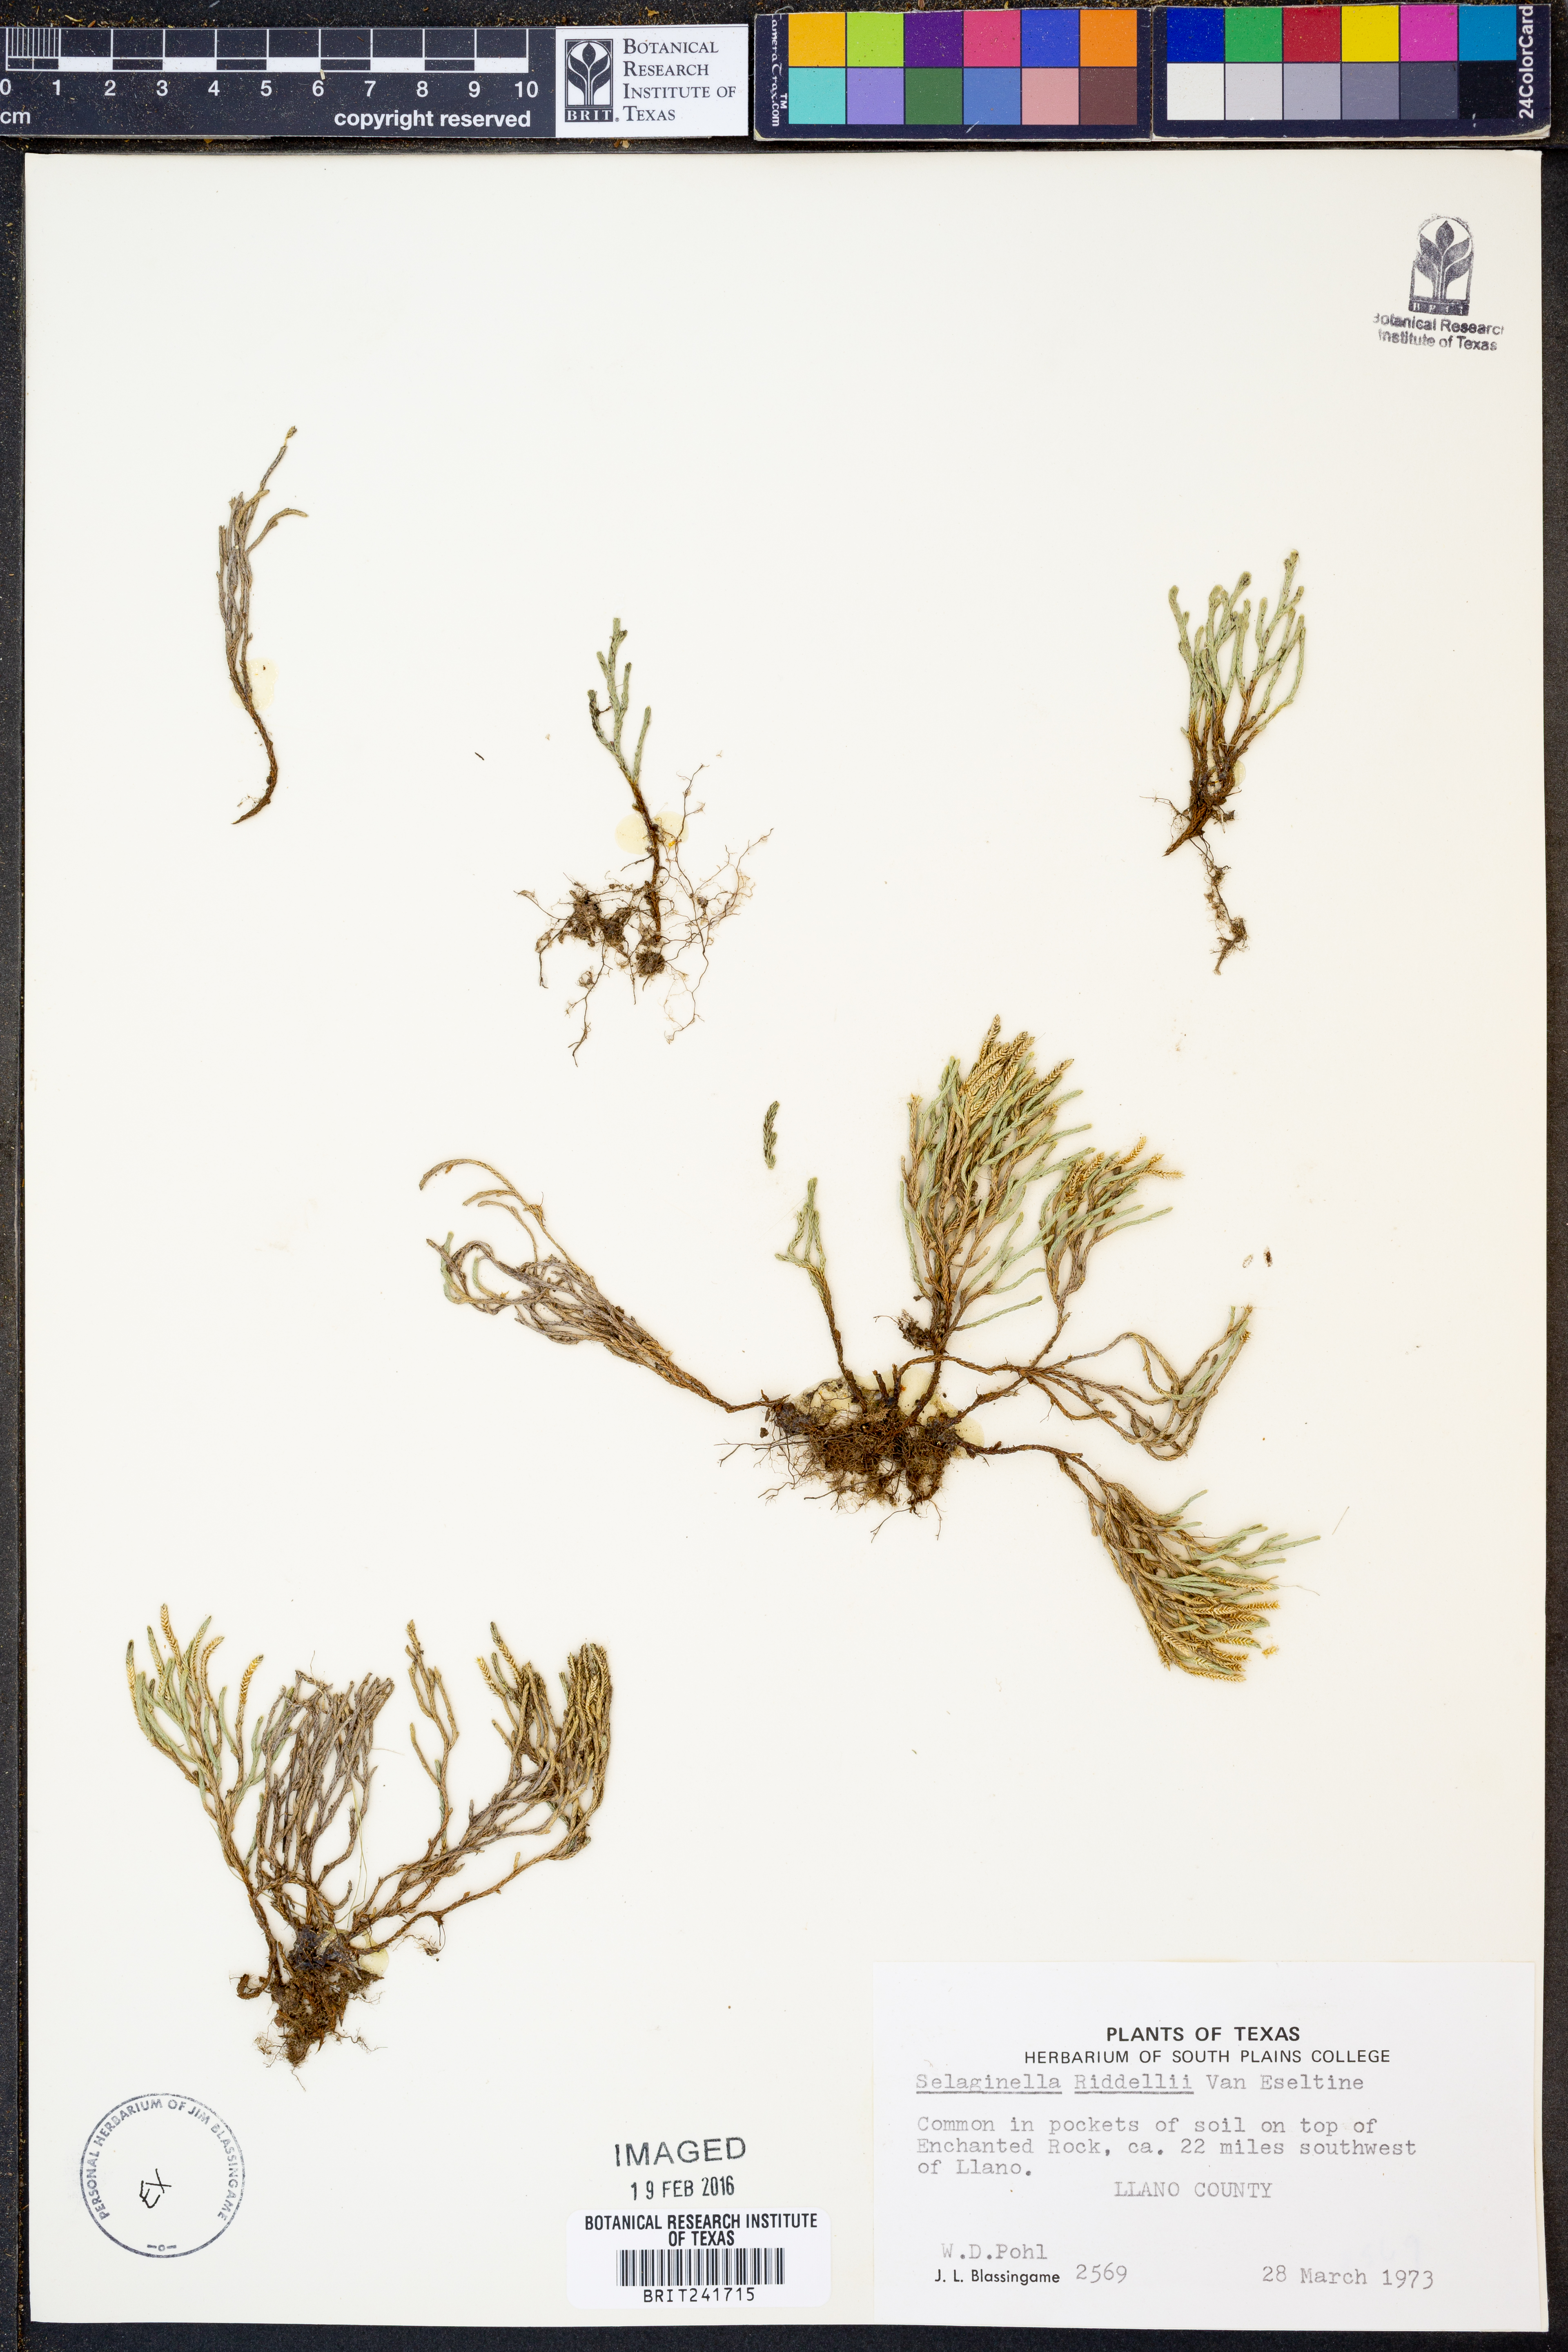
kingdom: Plantae
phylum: Tracheophyta
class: Lycopodiopsida
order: Selaginellales
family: Selaginellaceae
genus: Selaginella
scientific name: Selaginella corallina
